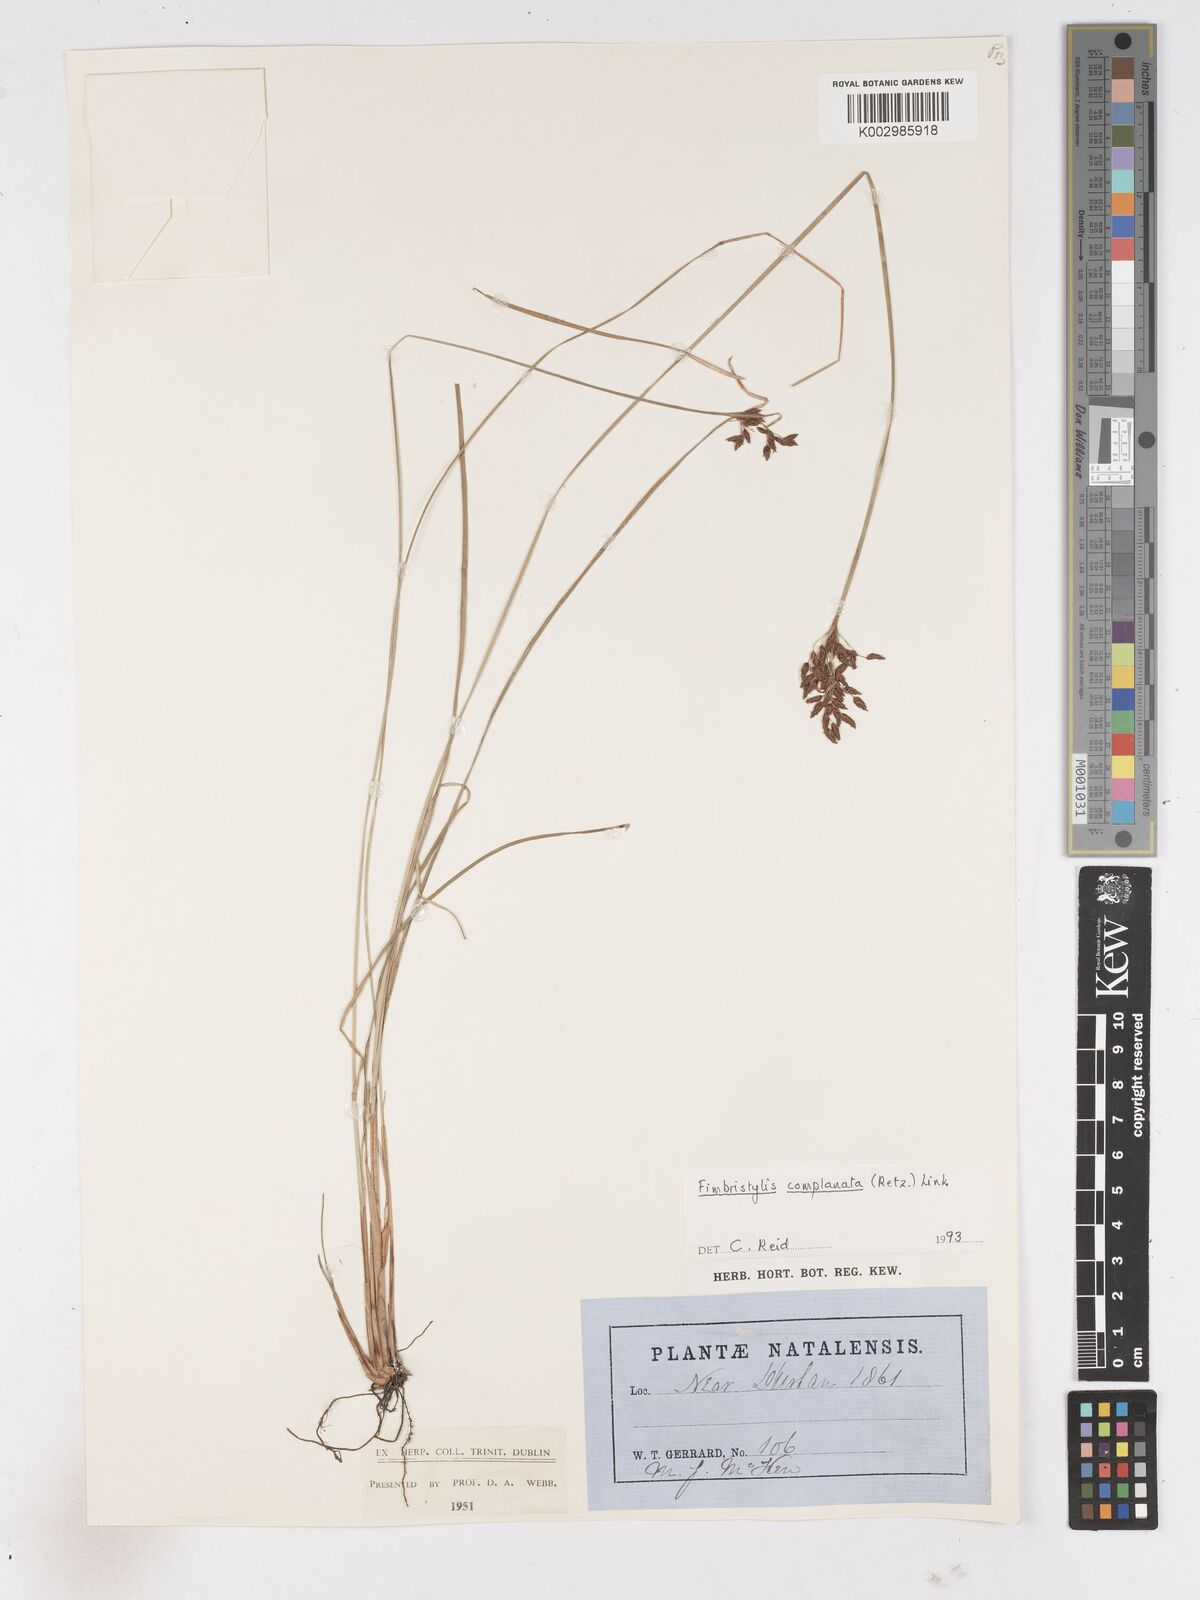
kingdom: Plantae
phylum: Tracheophyta
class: Liliopsida
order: Poales
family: Cyperaceae
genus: Fimbristylis
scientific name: Fimbristylis complanata
